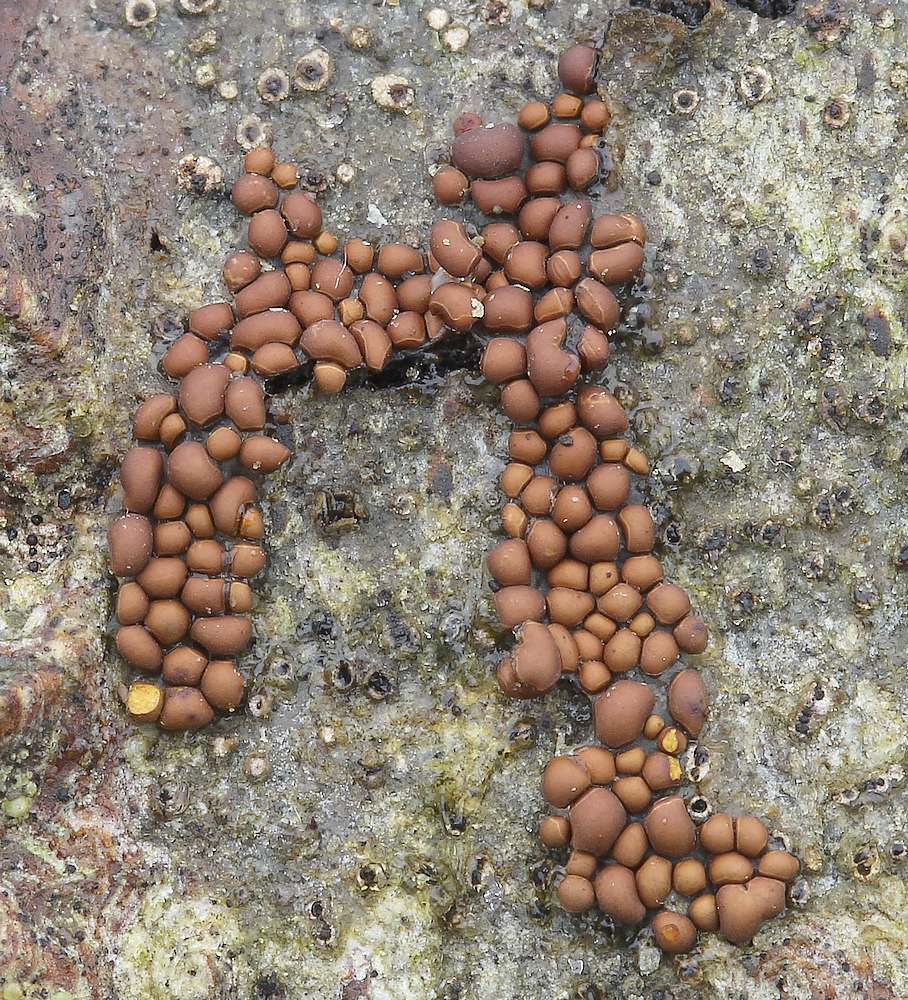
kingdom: Protozoa
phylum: Mycetozoa
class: Myxomycetes
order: Trichiales
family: Trichiaceae
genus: Perichaena
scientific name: Perichaena corticalis
